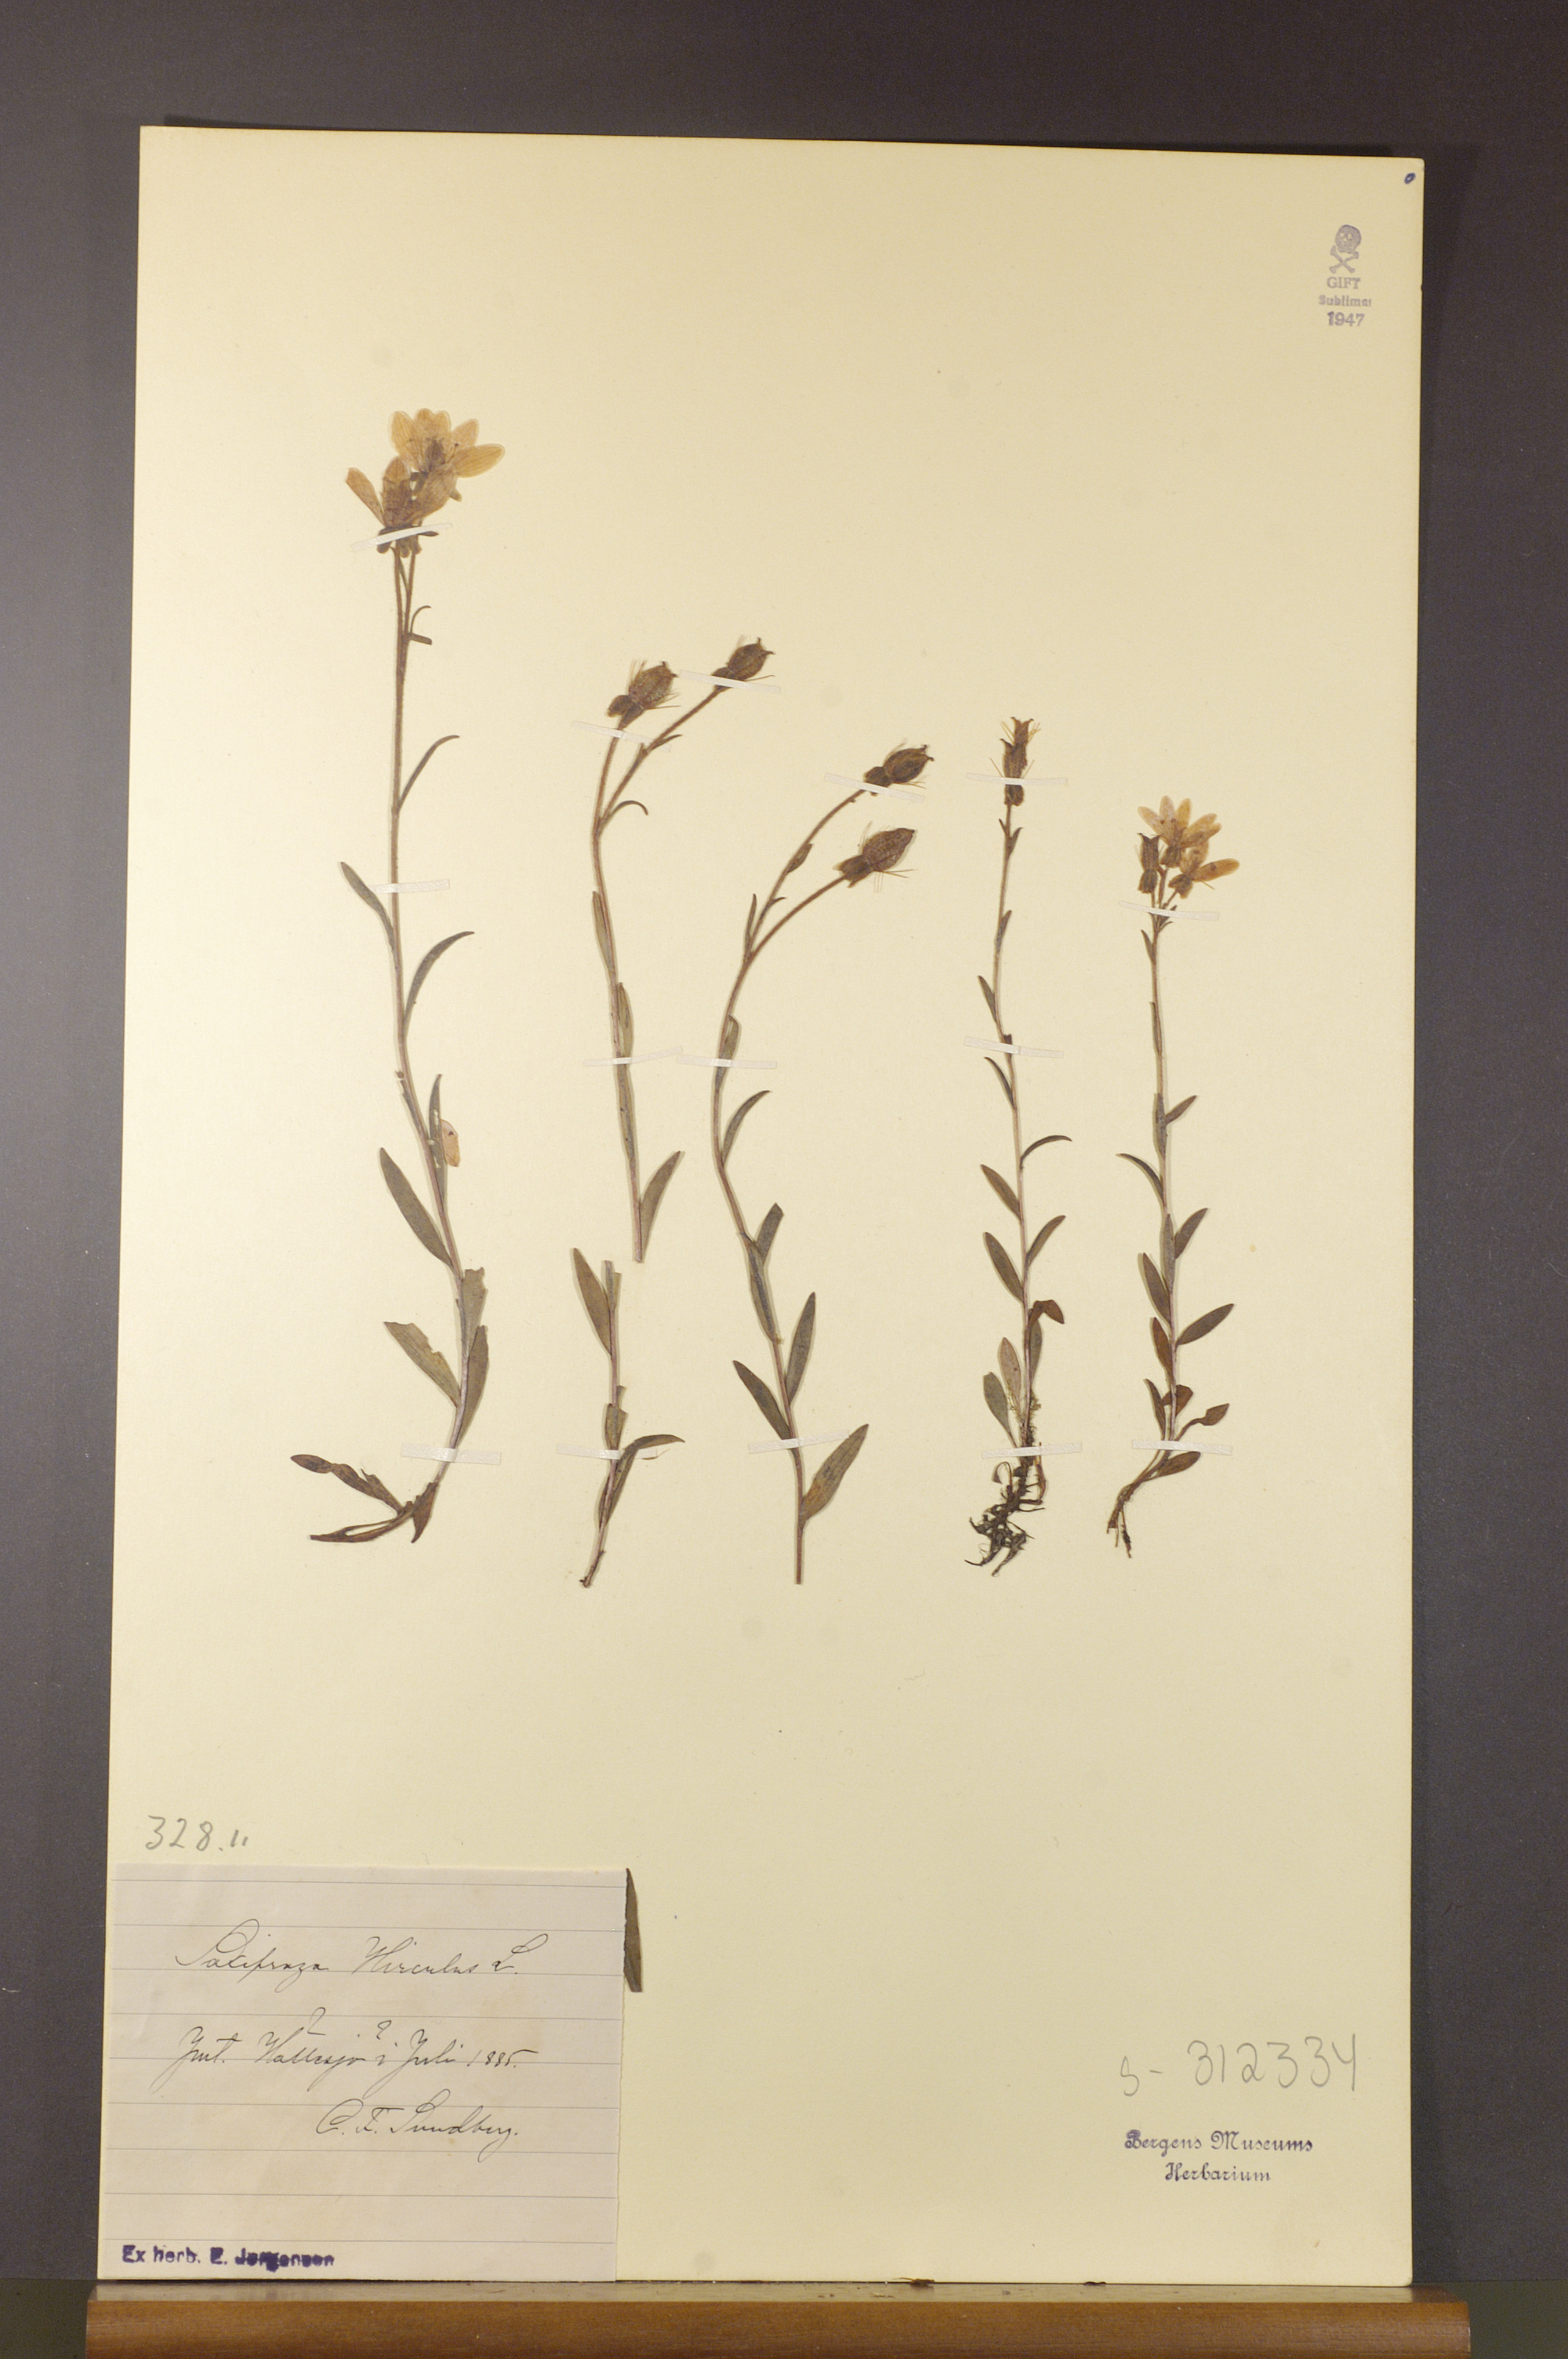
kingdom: Plantae
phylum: Tracheophyta
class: Magnoliopsida
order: Saxifragales
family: Saxifragaceae
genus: Saxifraga
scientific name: Saxifraga hirculus
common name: Yellow marsh saxifrage
